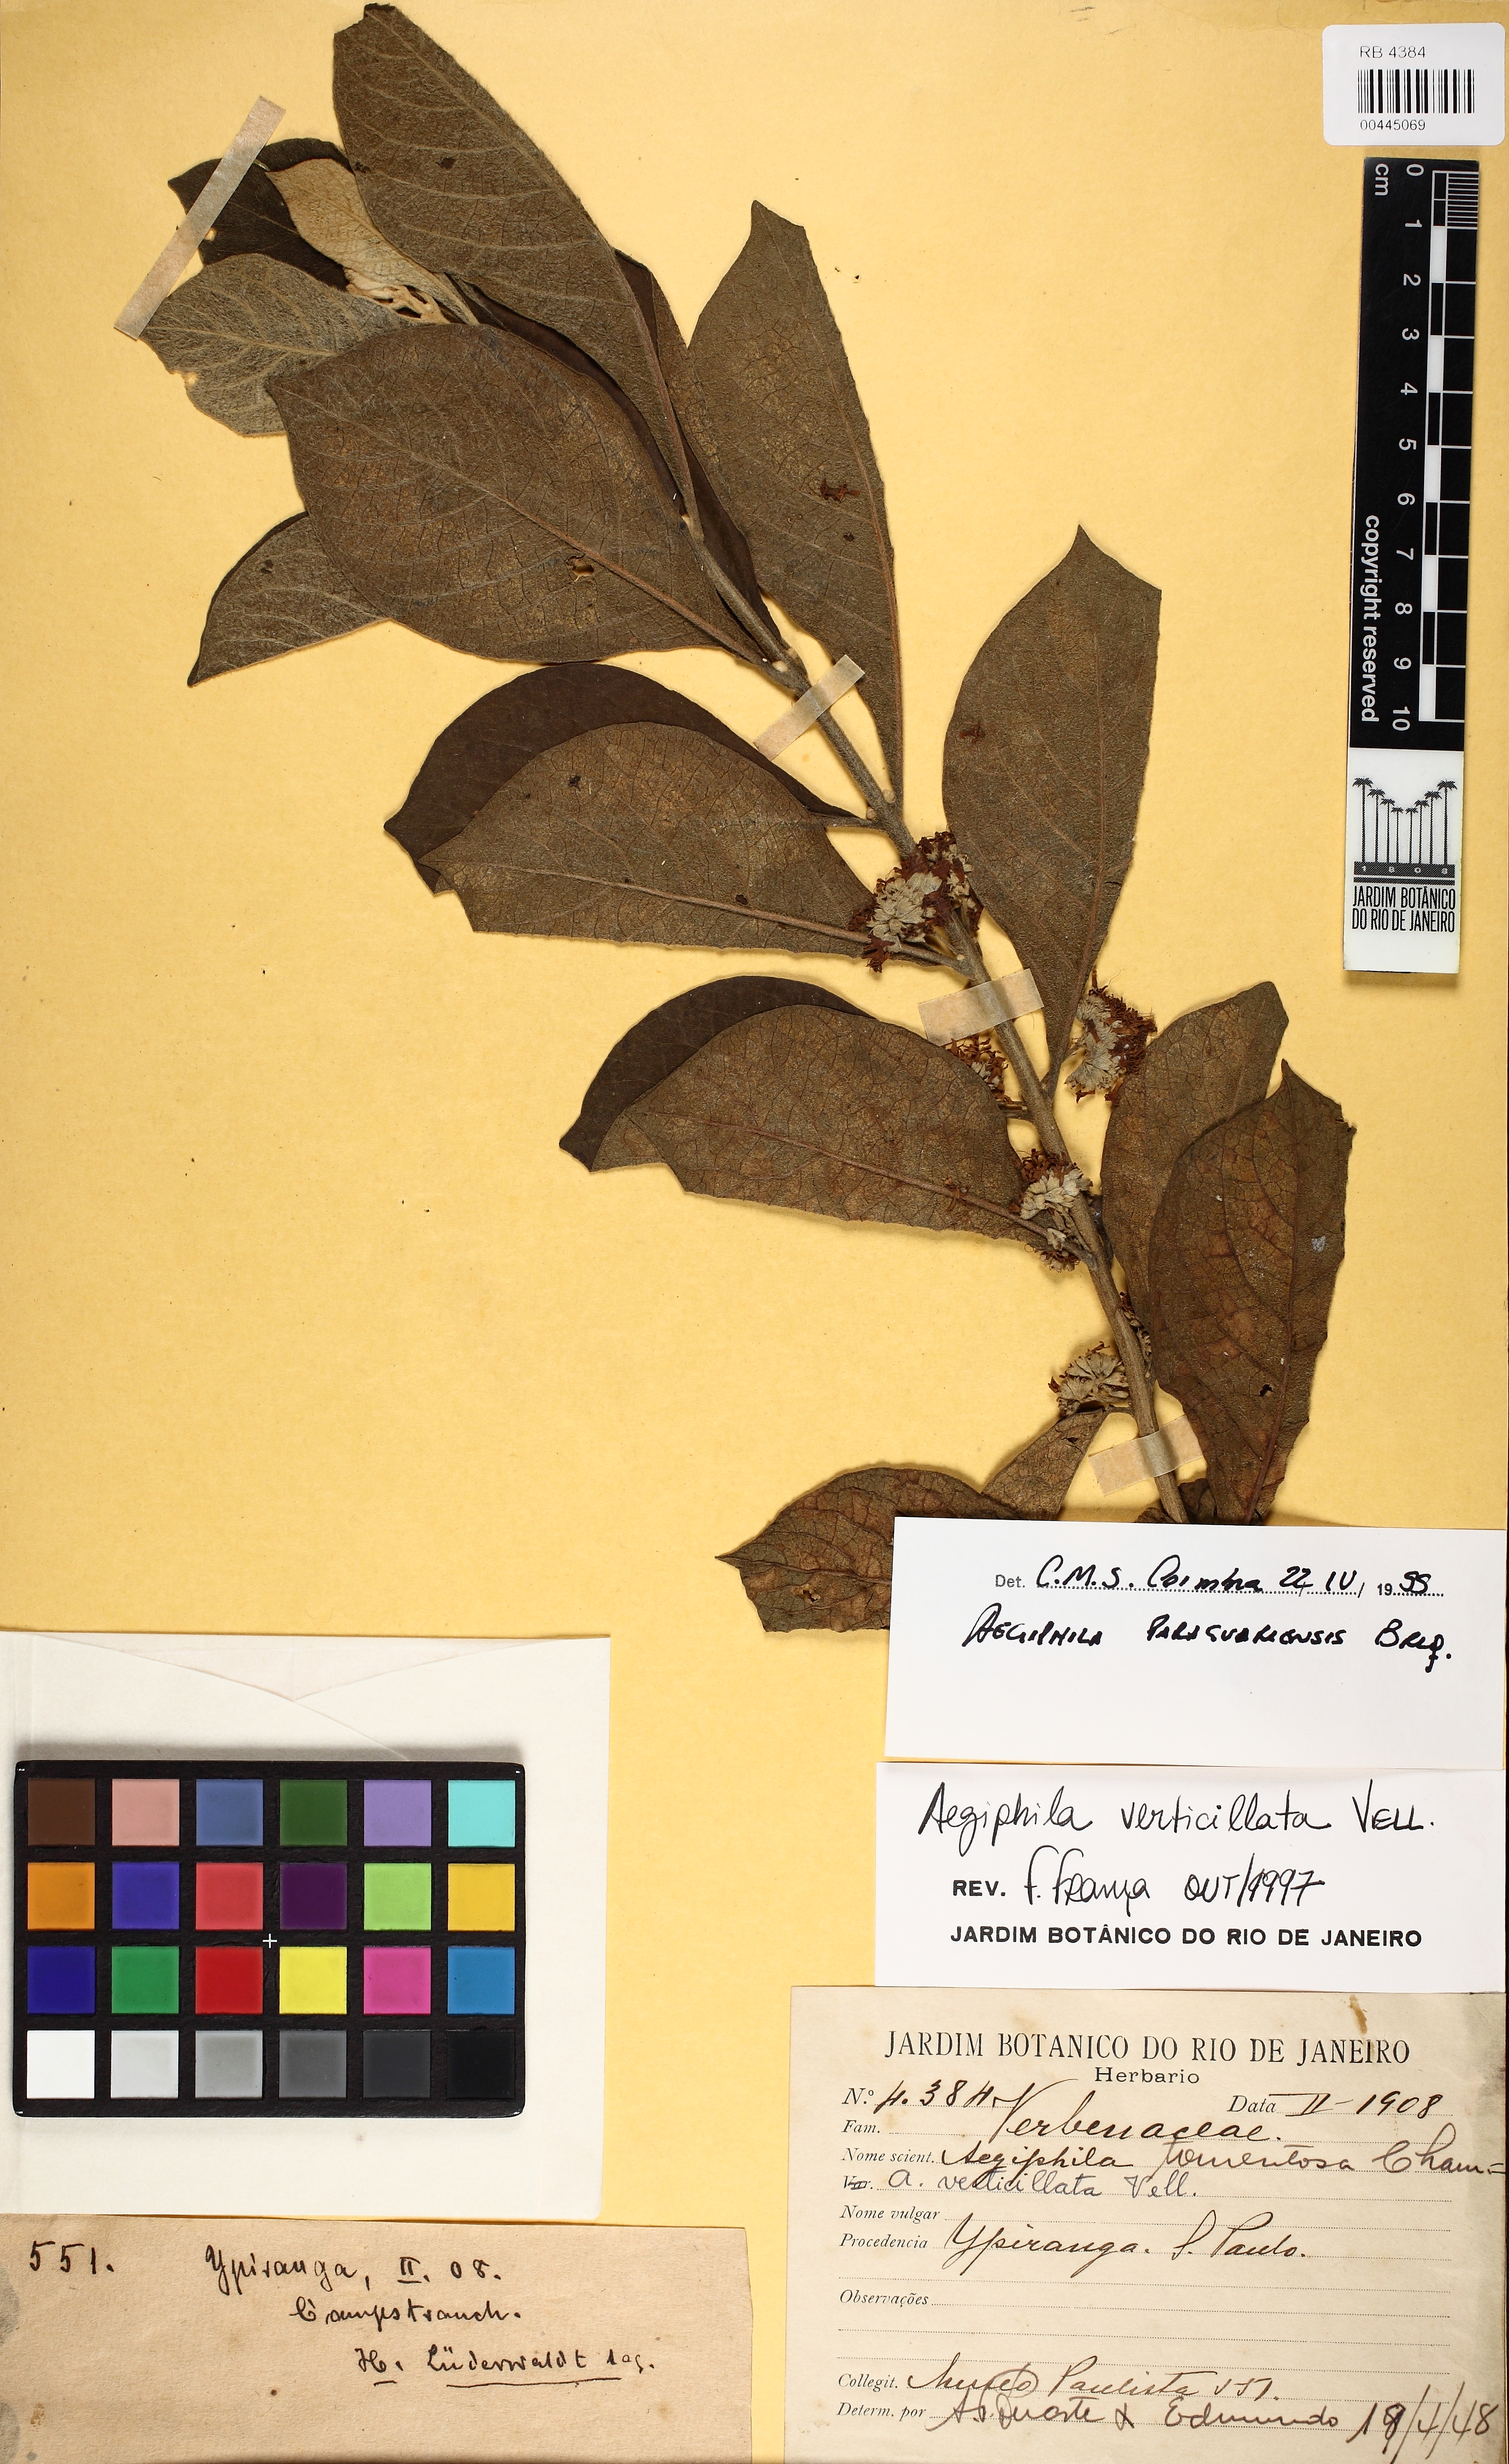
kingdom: Plantae
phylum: Tracheophyta
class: Magnoliopsida
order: Lamiales
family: Lamiaceae
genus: Aegiphila
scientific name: Aegiphila verticillata
